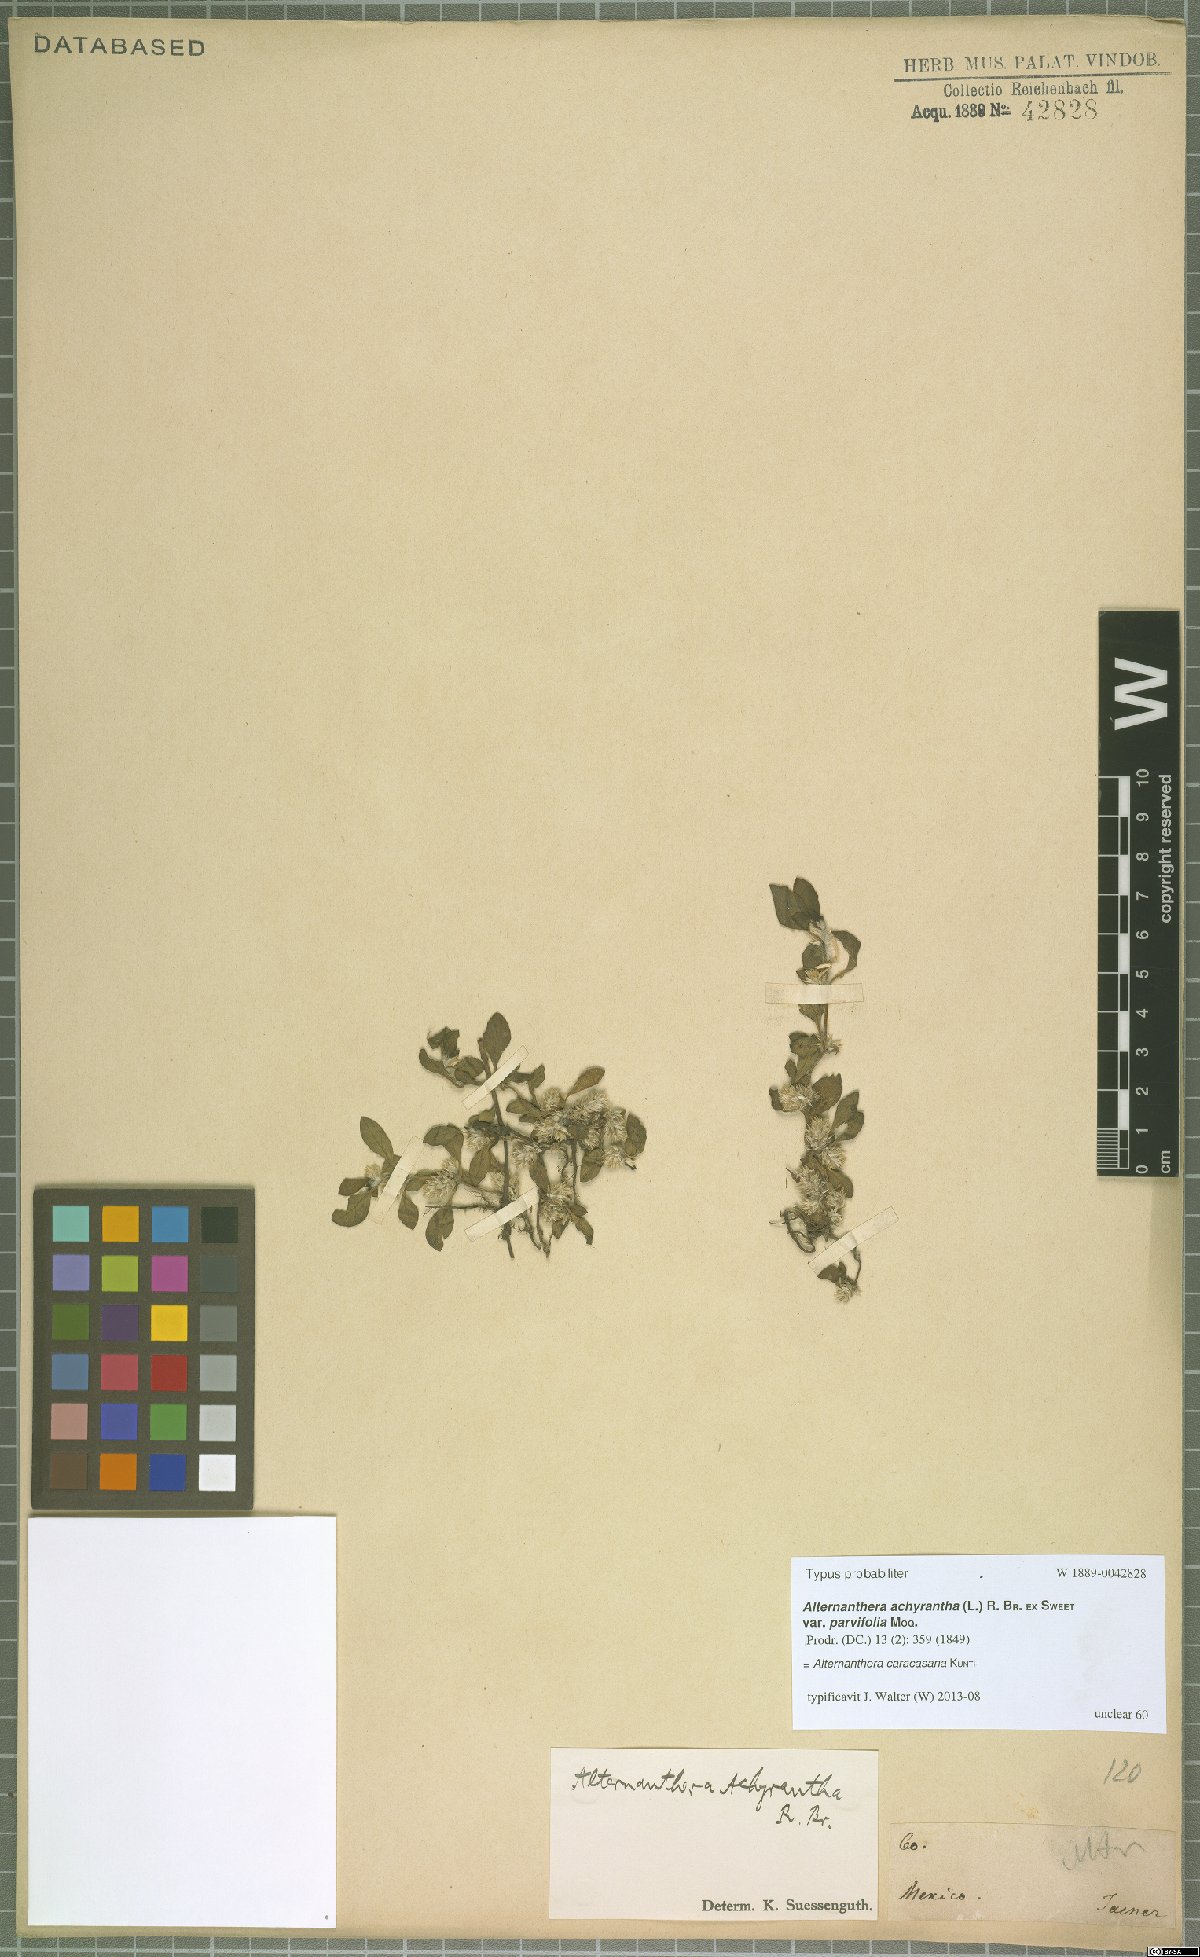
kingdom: Plantae
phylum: Tracheophyta
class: Magnoliopsida
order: Caryophyllales
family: Amaranthaceae
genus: Alternanthera
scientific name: Alternanthera caracasana
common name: Washerwoman
